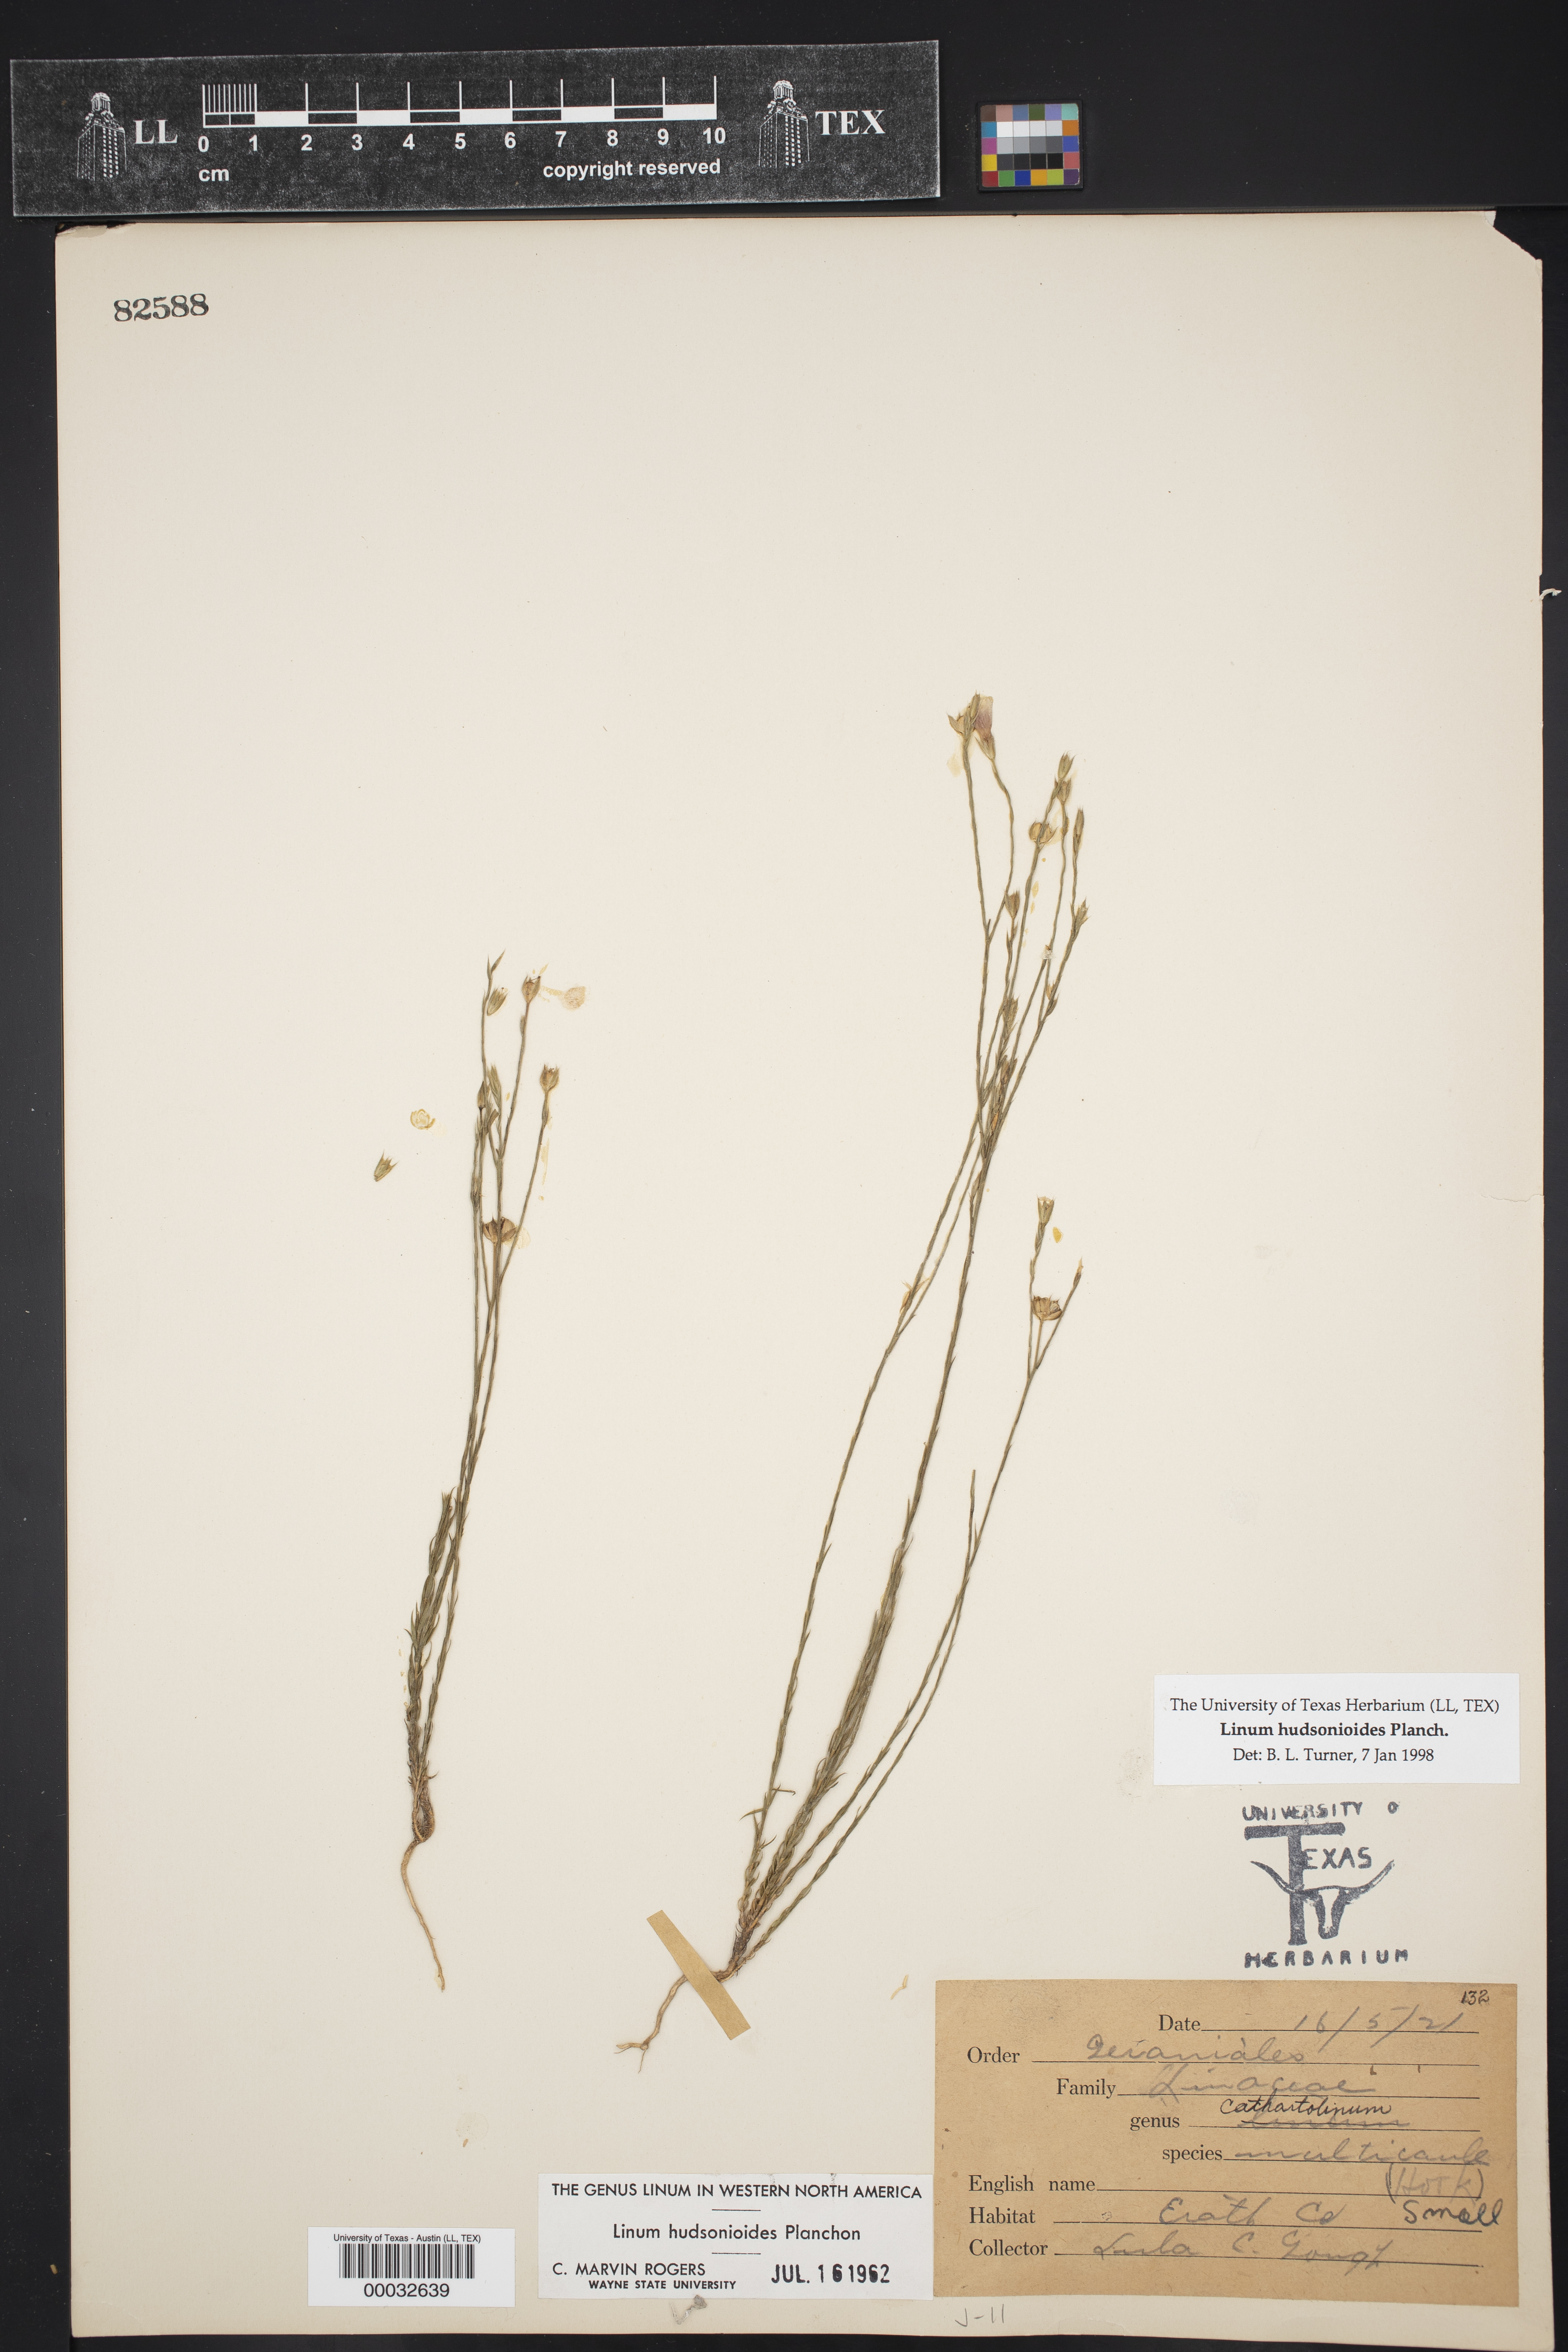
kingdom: Plantae
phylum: Tracheophyta
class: Magnoliopsida
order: Malpighiales
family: Linaceae
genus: Linum
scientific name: Linum hudsonioides
